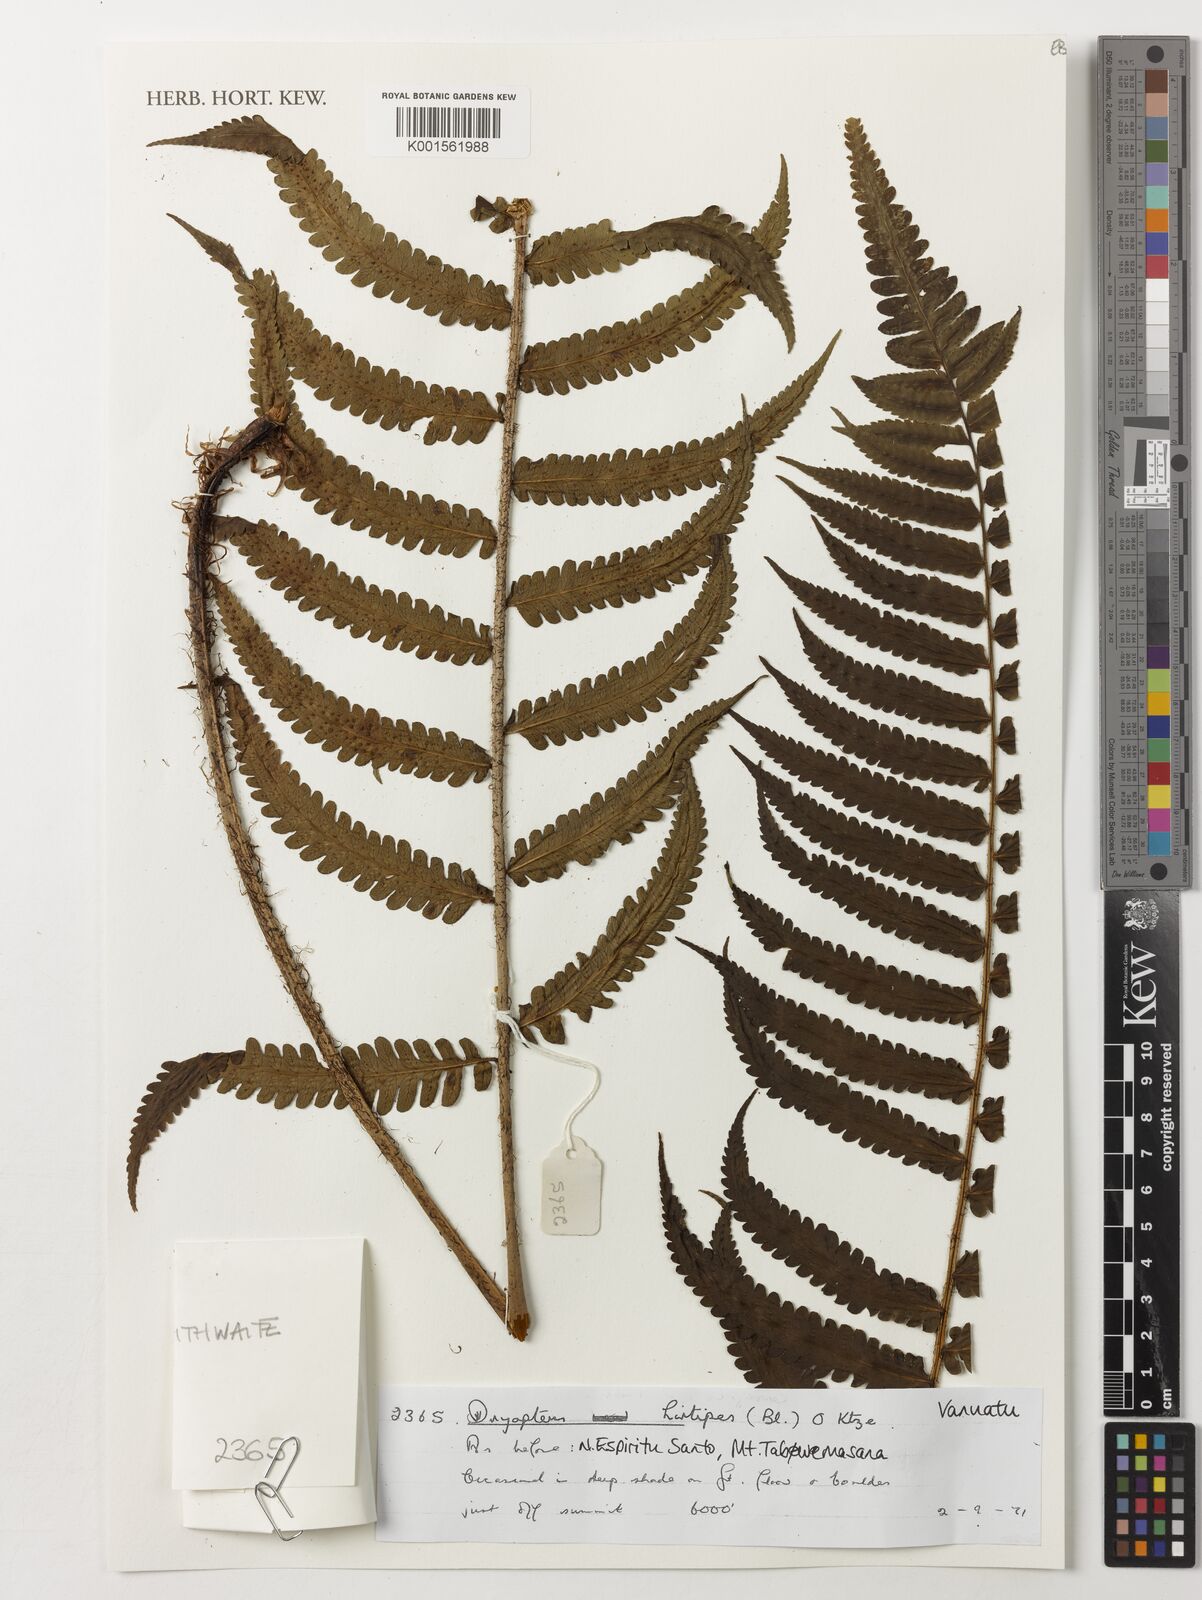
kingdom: Plantae
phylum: Tracheophyta
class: Polypodiopsida
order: Polypodiales
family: Dryopteridaceae
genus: Dryopteris
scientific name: Dryopteris hirtipes
